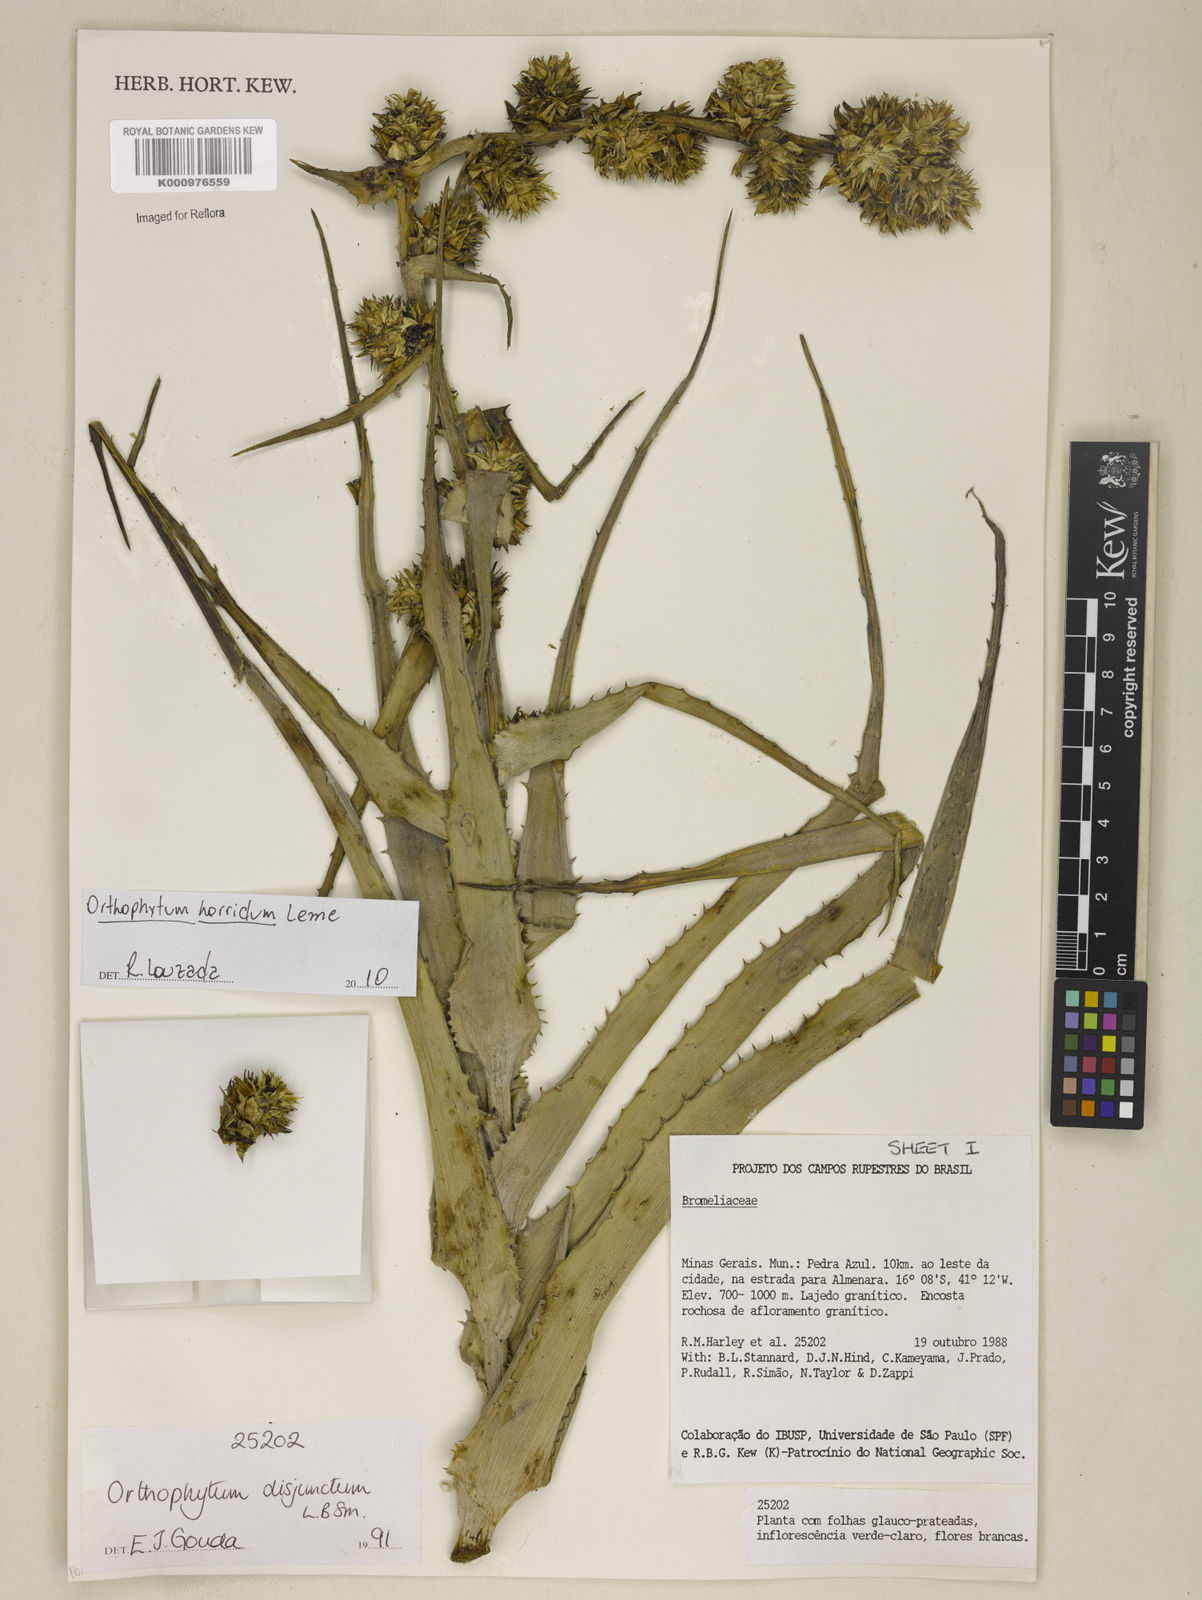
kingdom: Plantae
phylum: Tracheophyta
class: Liliopsida
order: Poales
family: Bromeliaceae
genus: Orthophytum
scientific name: Orthophytum disjunctum
